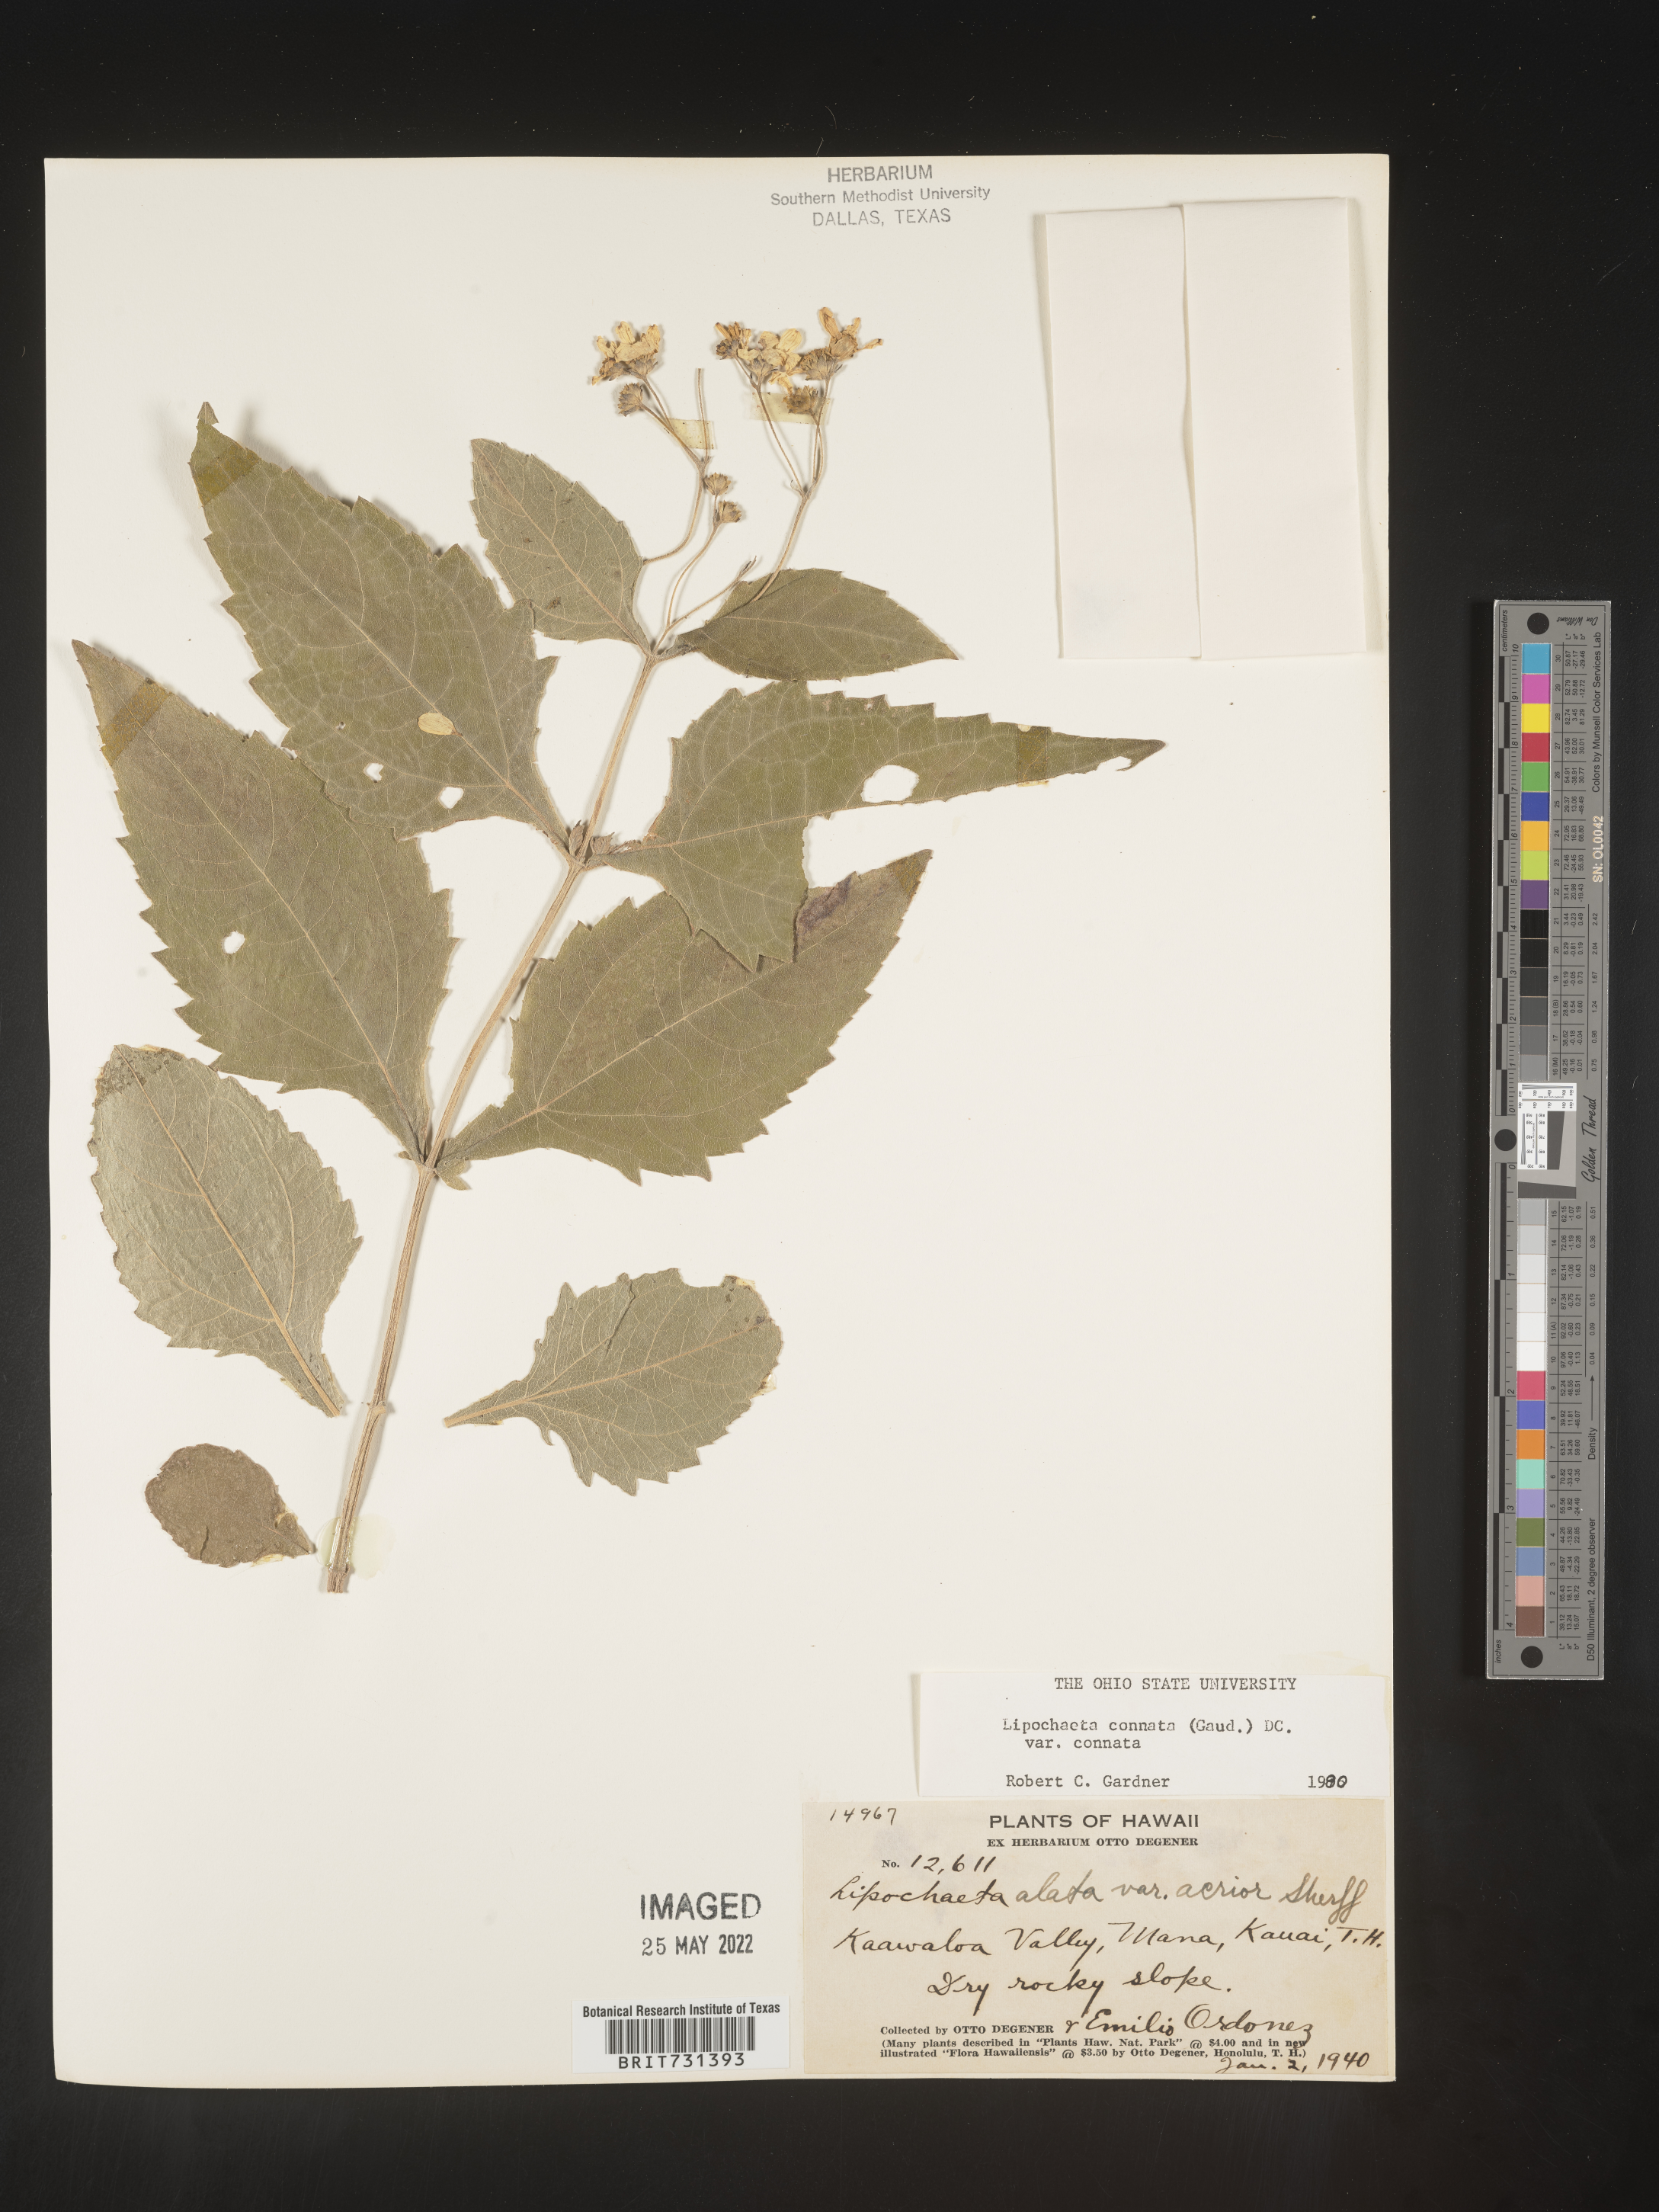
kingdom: Plantae
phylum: Tracheophyta
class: Magnoliopsida
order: Asterales
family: Asteraceae
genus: Lipochaeta
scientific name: Lipochaeta
